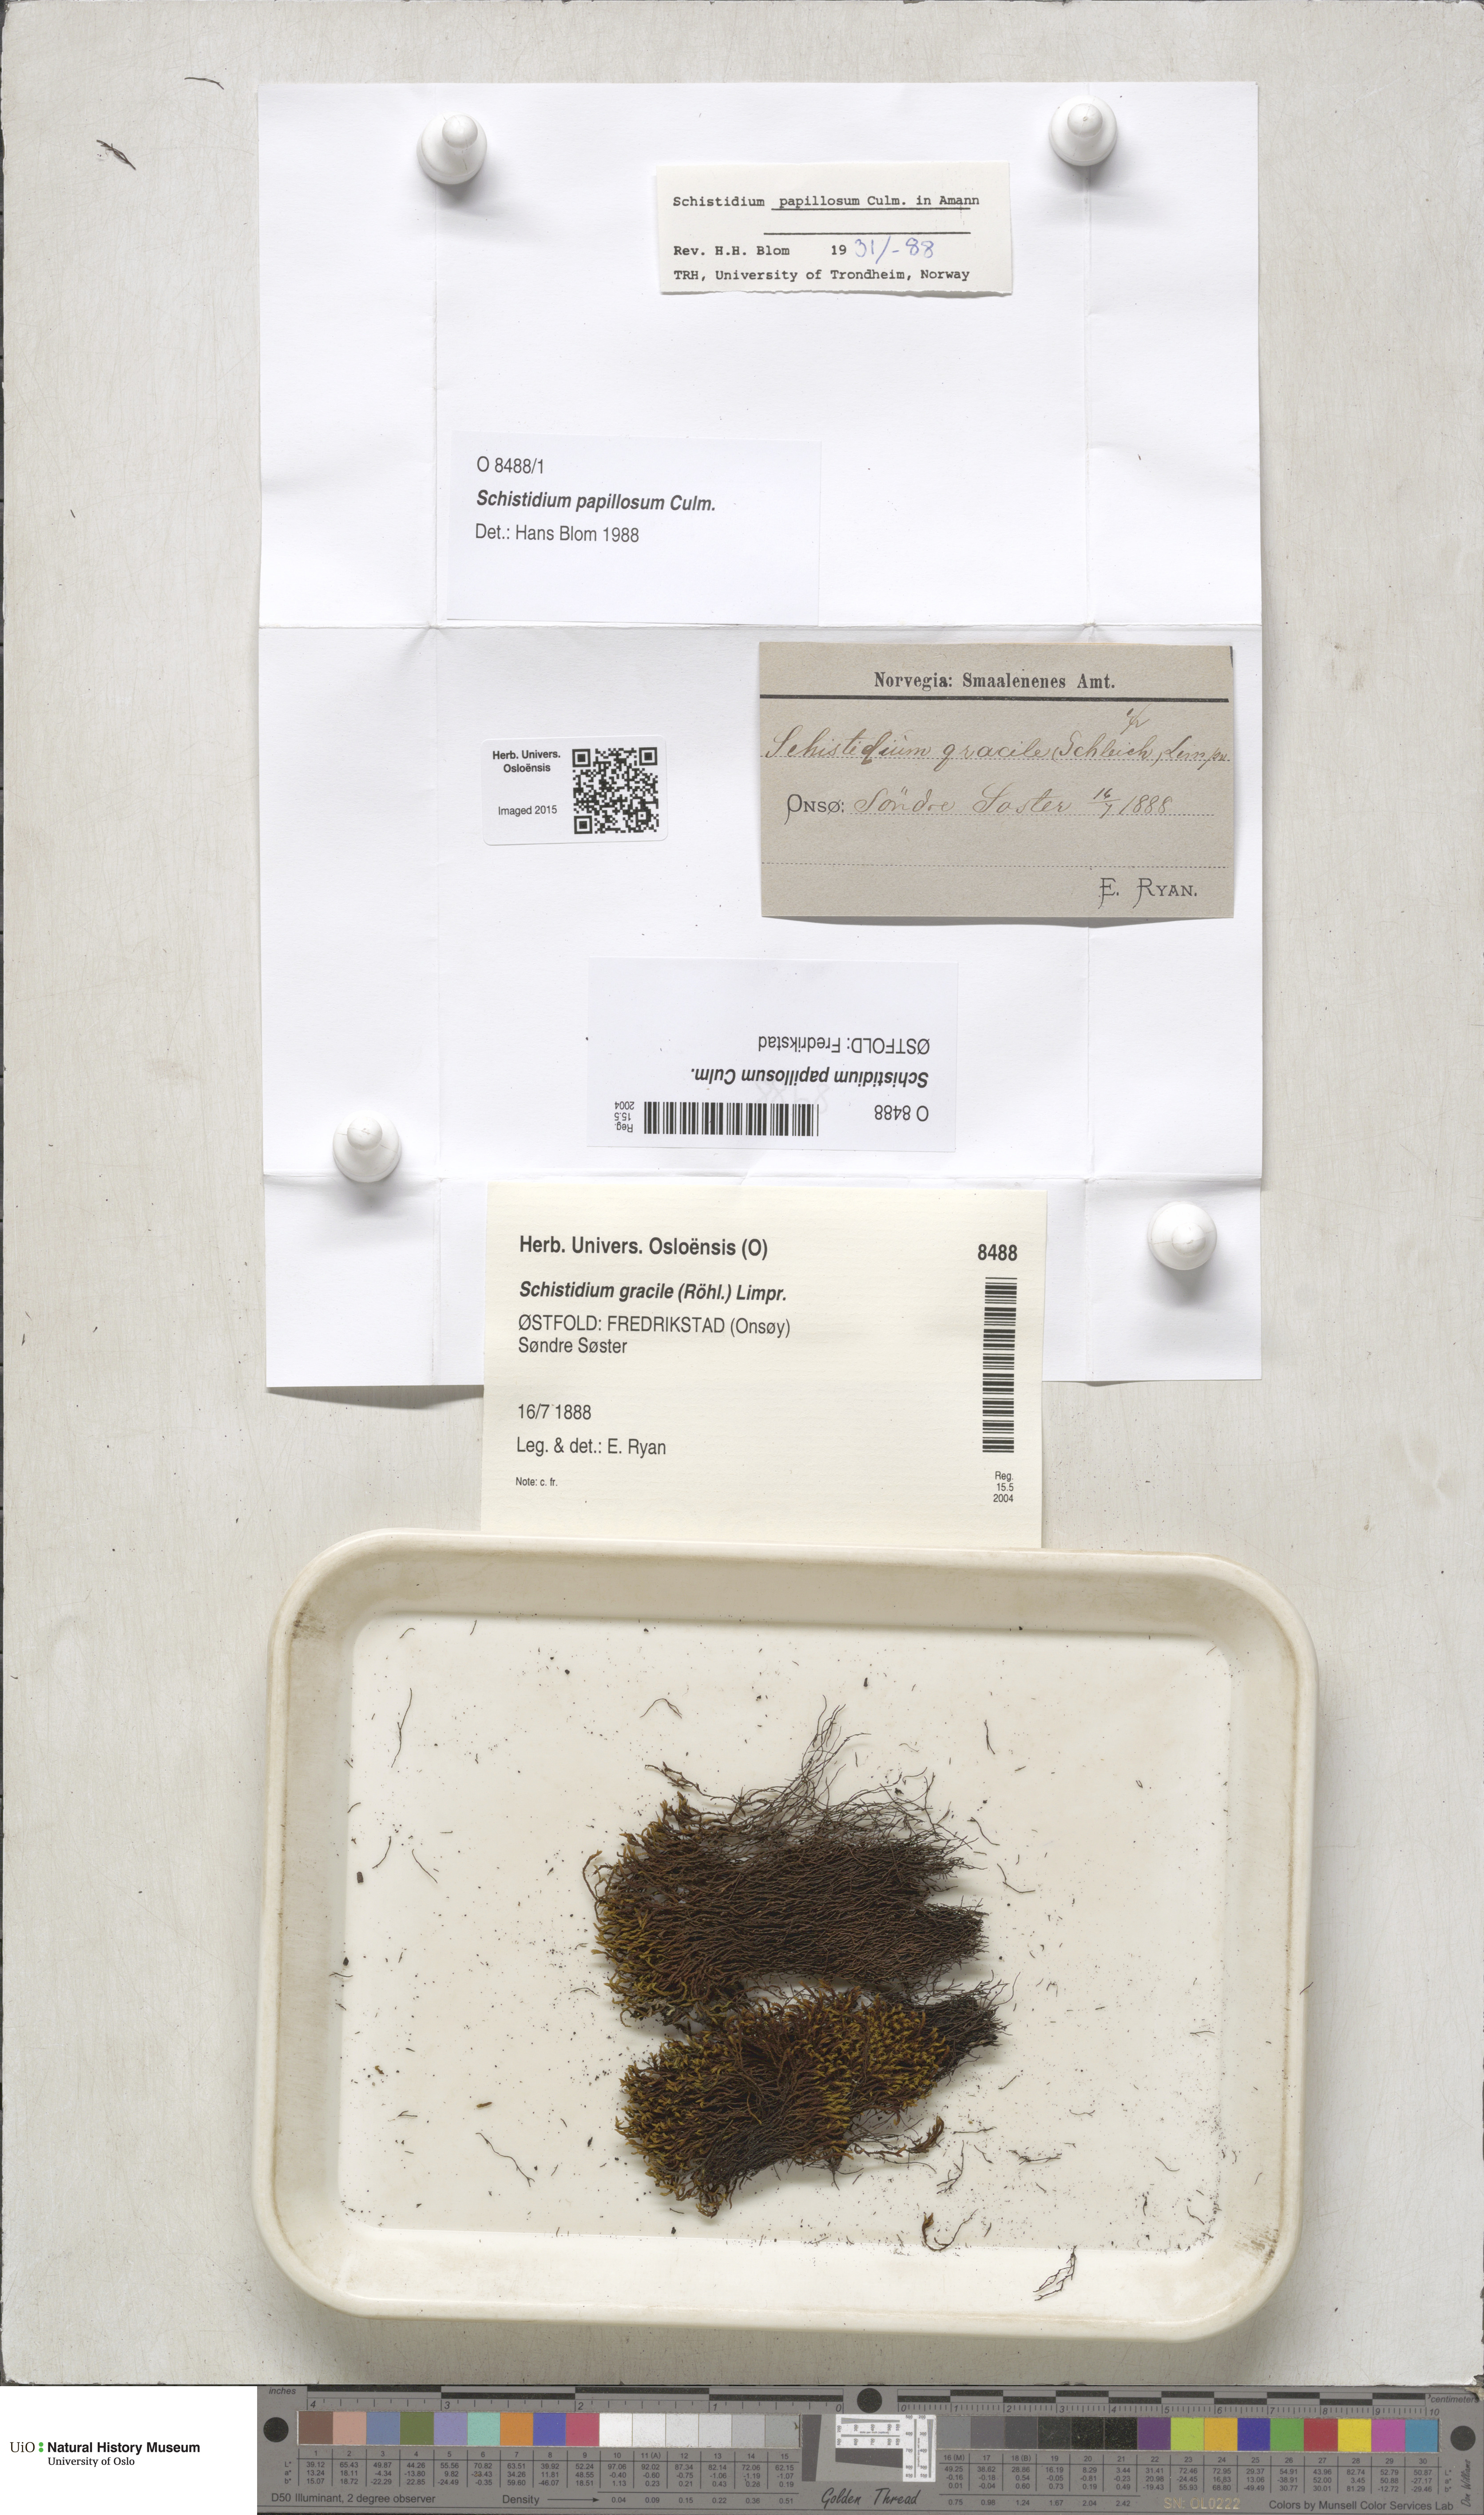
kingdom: Plantae
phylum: Bryophyta
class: Bryopsida
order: Grimmiales
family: Grimmiaceae
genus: Schistidium
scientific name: Schistidium papillosum
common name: Papillose bloom moss
